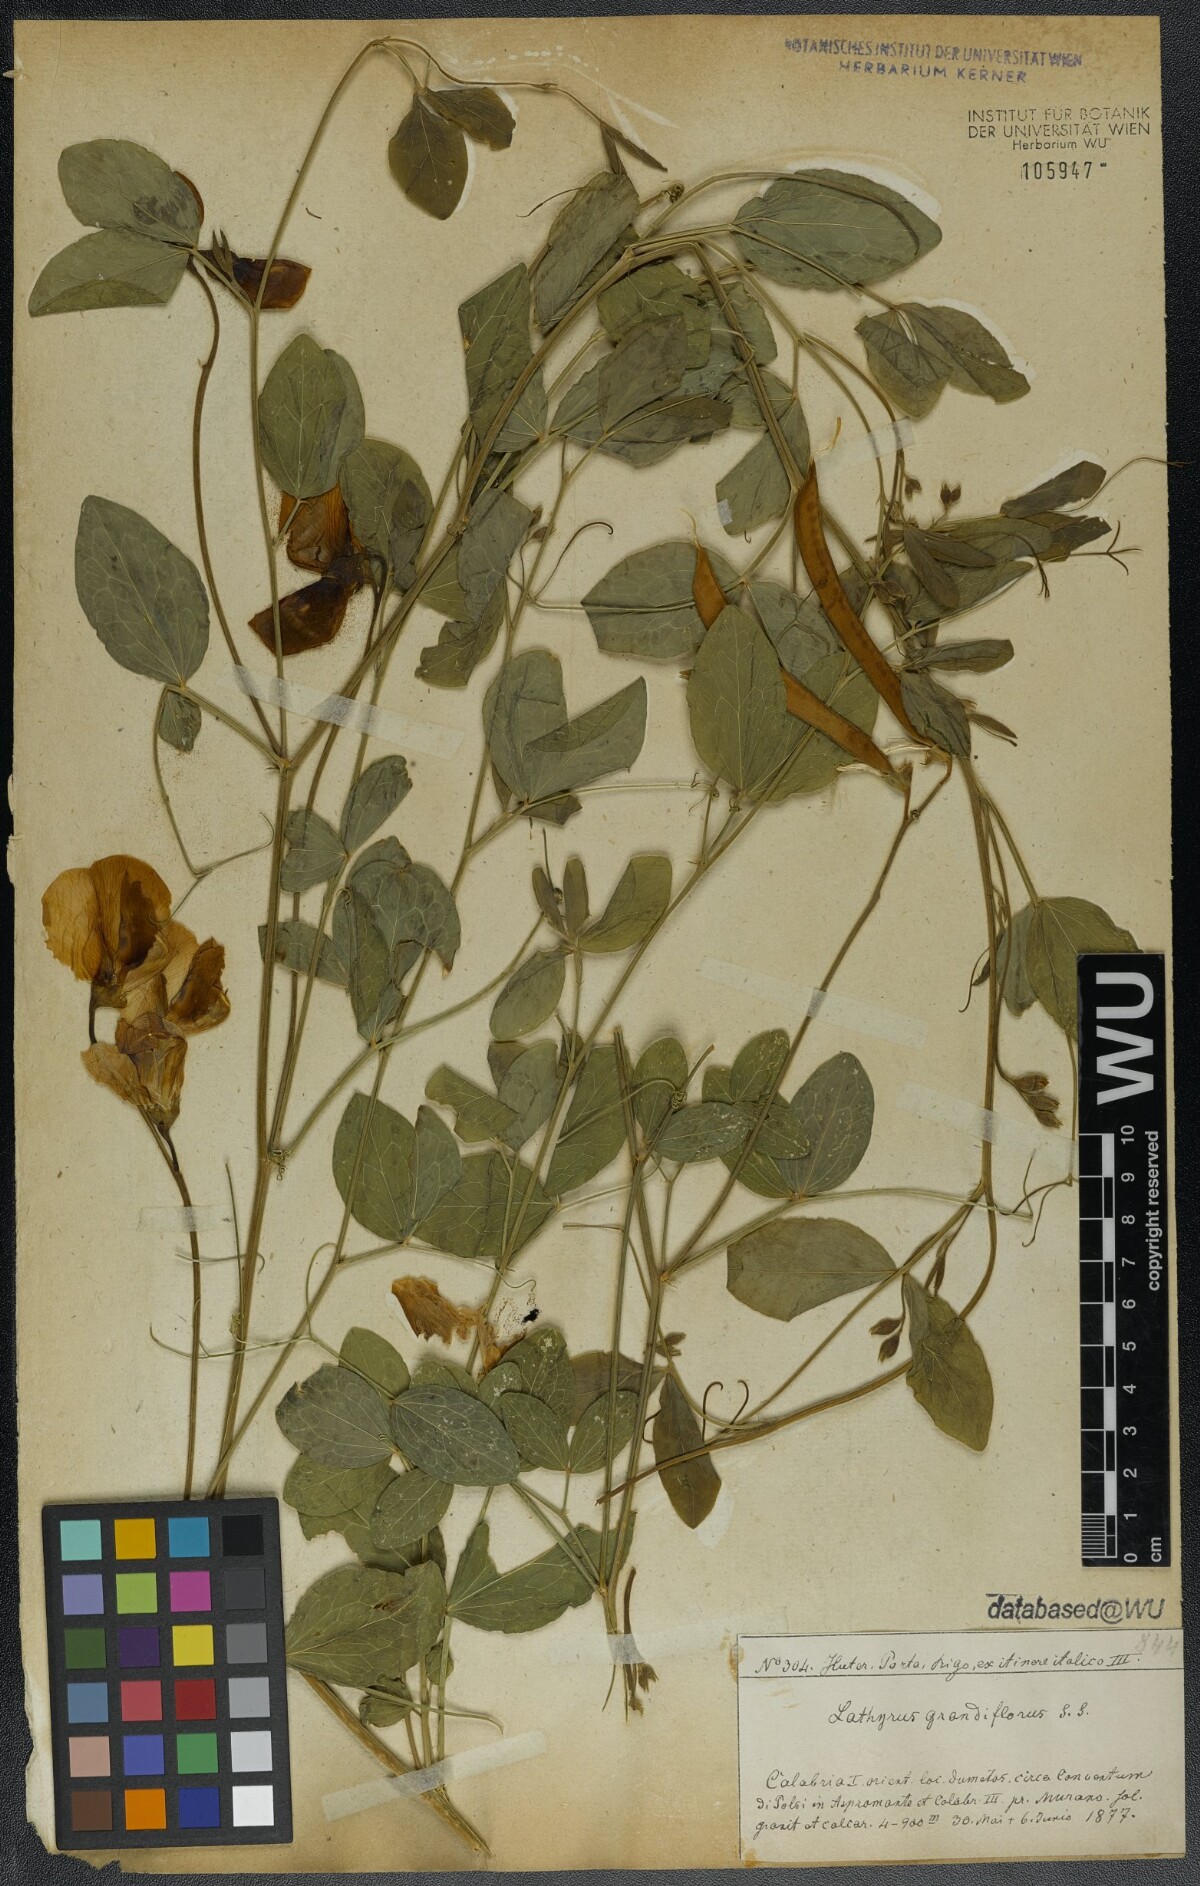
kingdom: Plantae
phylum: Tracheophyta
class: Magnoliopsida
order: Fabales
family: Fabaceae
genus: Lathyrus
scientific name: Lathyrus grandiflorus
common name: Two-flowered everlasting-pea
